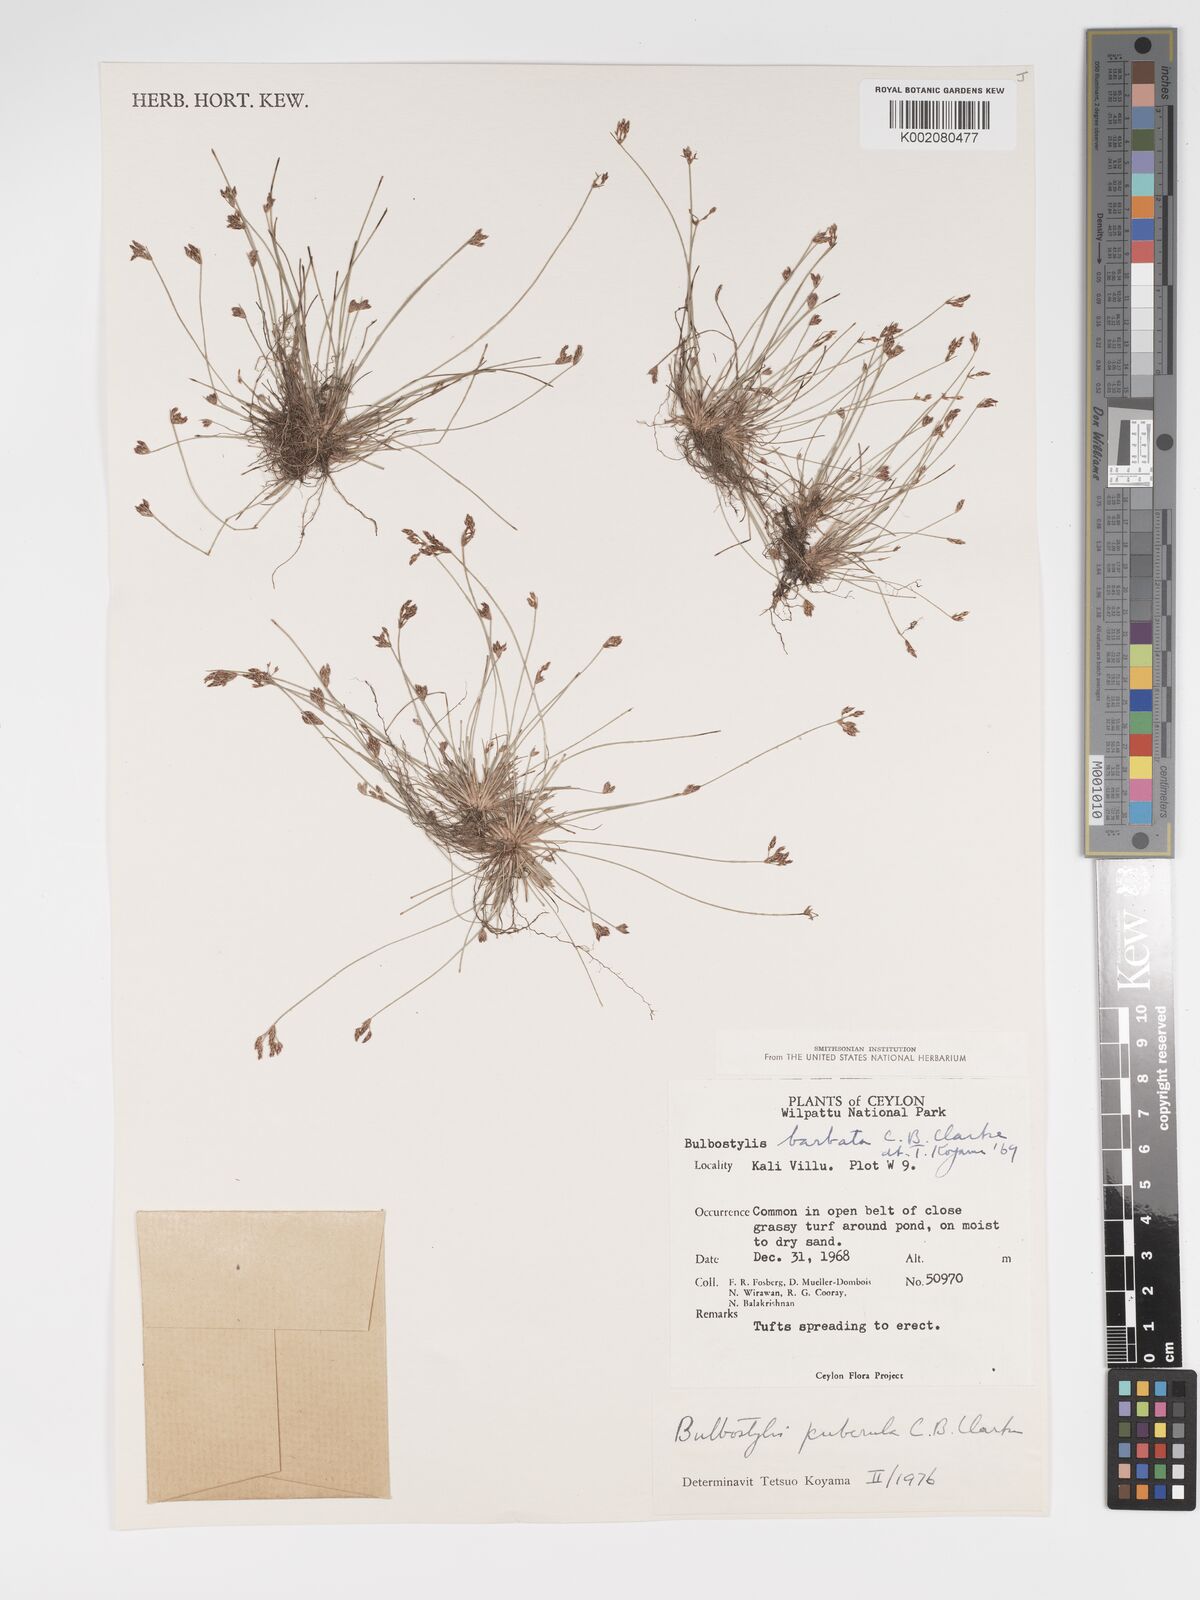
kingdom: Plantae
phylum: Tracheophyta
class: Liliopsida
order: Poales
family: Cyperaceae
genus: Bulbostylis
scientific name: Bulbostylis barbata
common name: Watergrass
